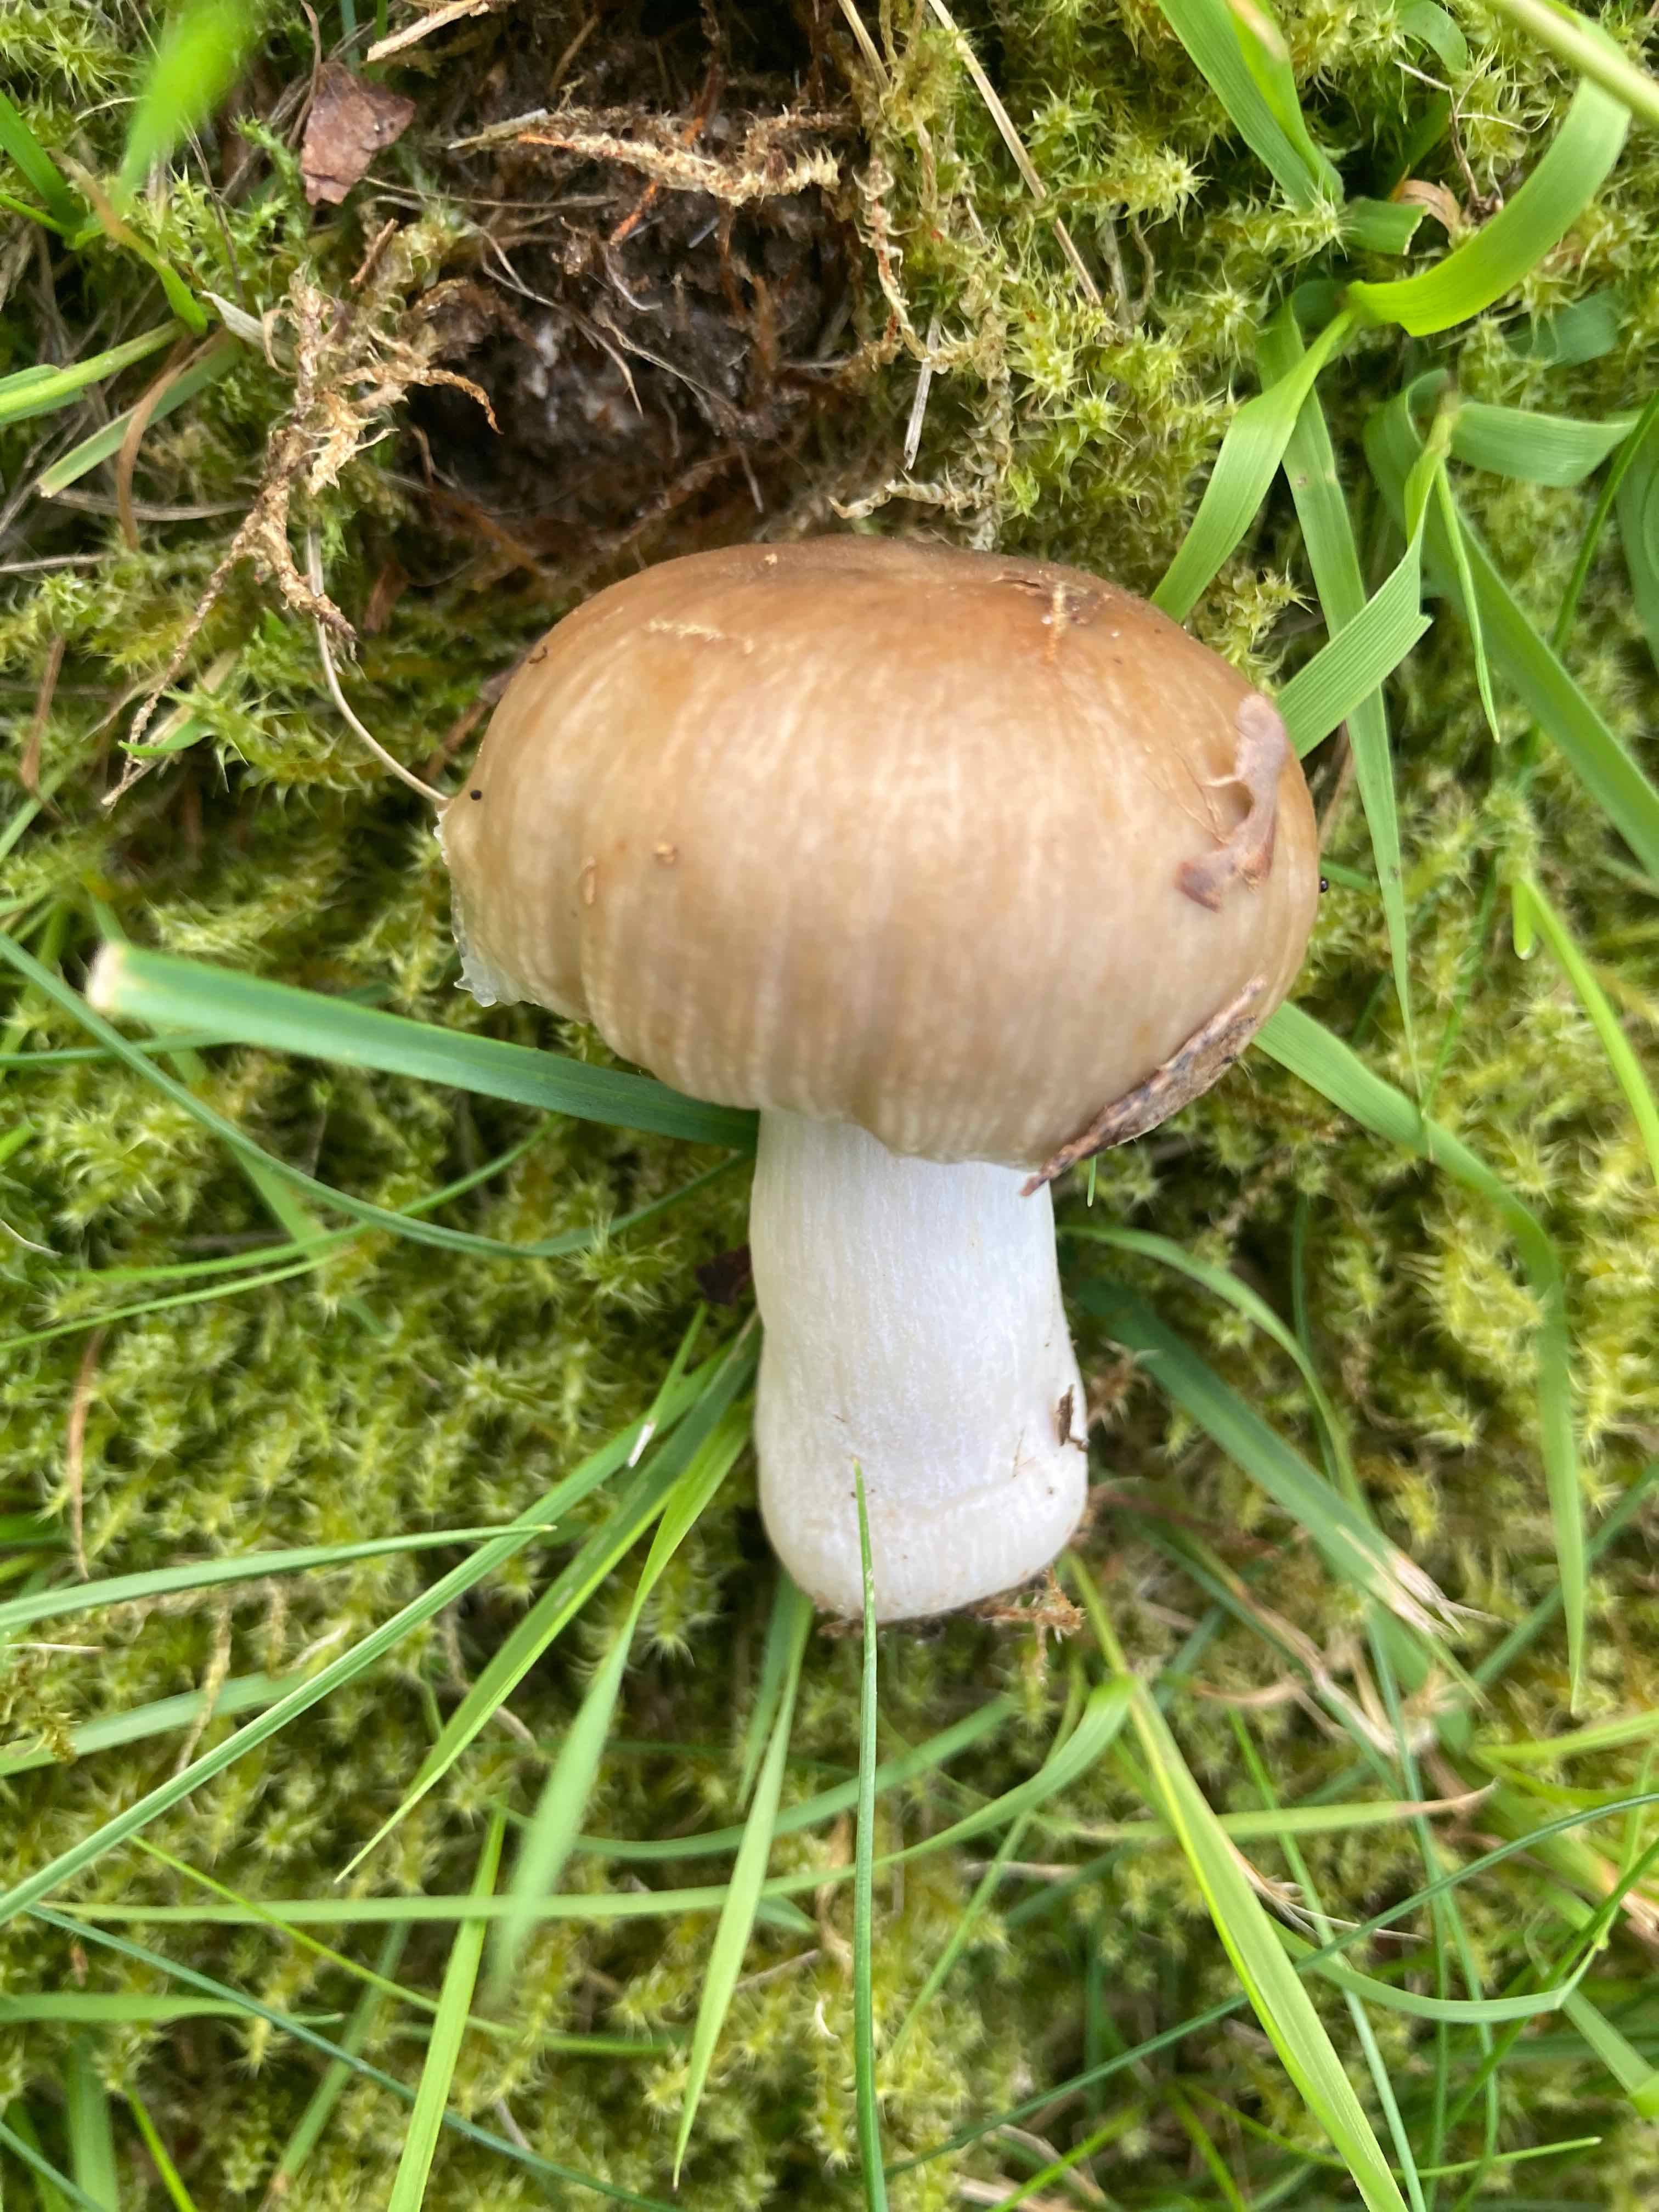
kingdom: Fungi
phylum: Basidiomycota
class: Agaricomycetes
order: Russulales
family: Russulaceae
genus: Russula
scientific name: Russula recondita
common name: mild kam-skørhat
